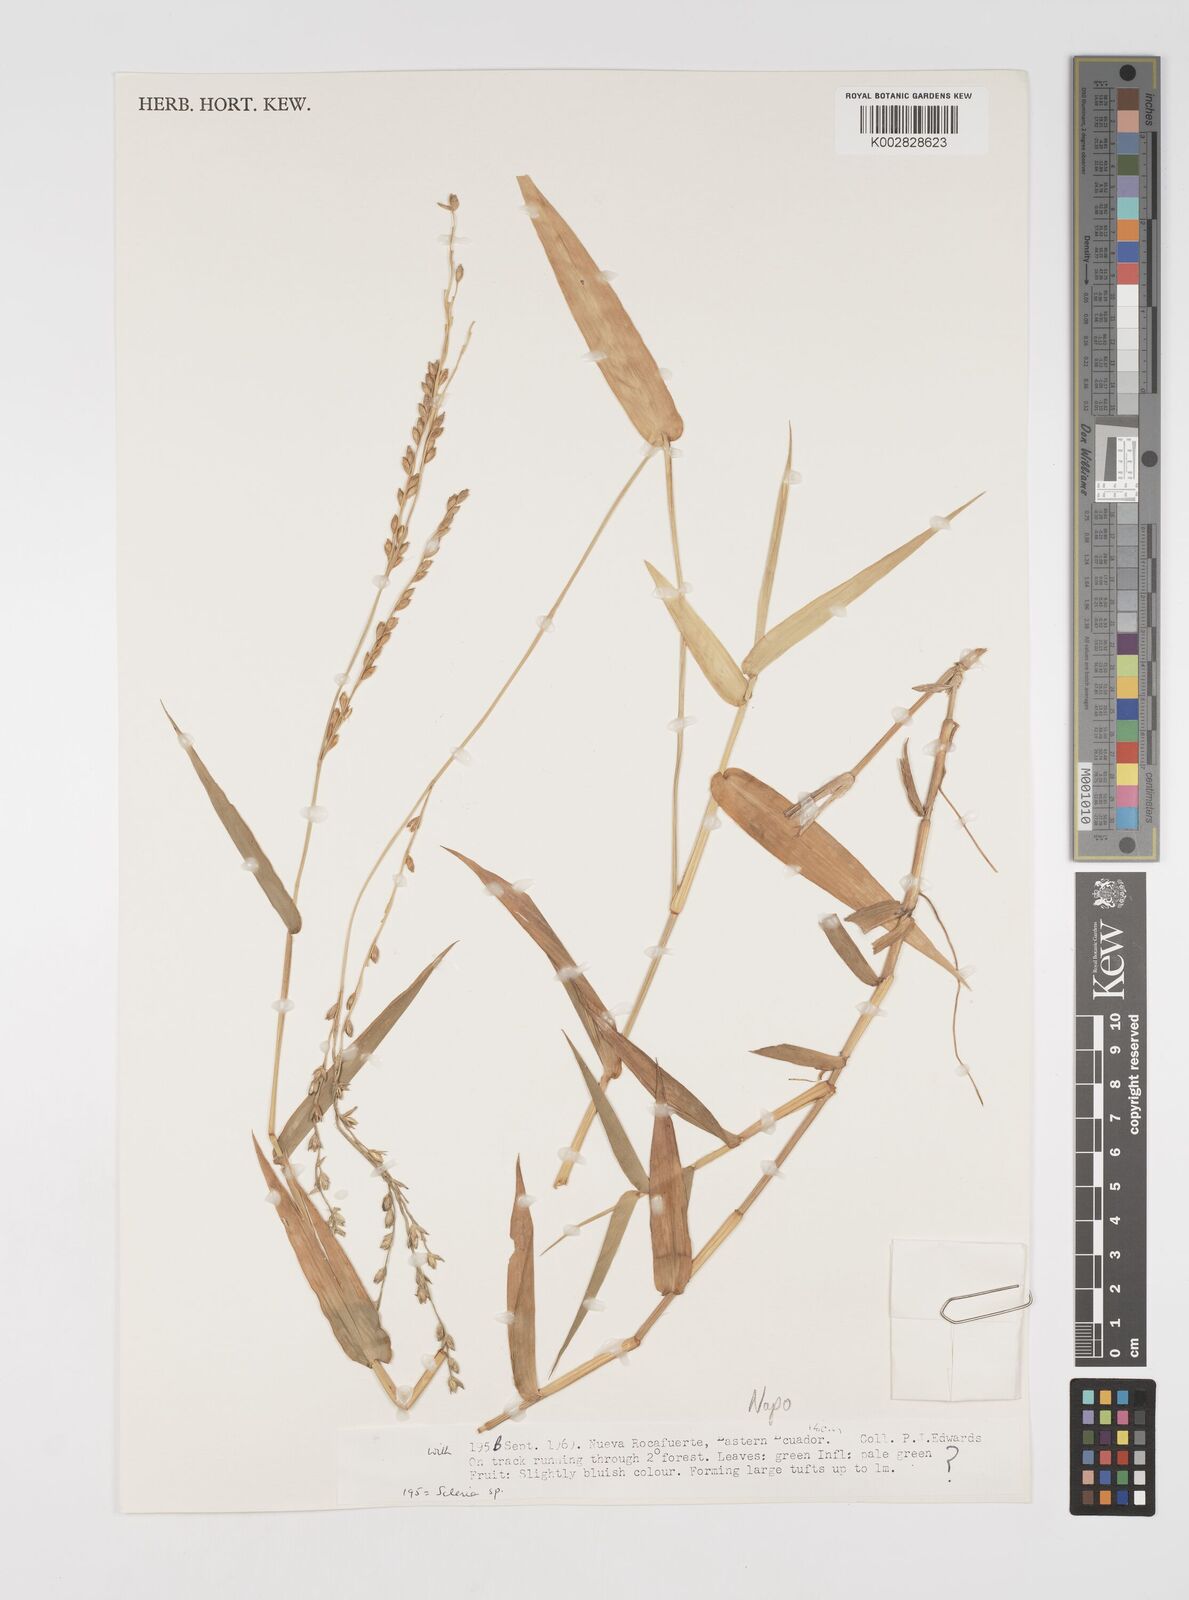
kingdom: Plantae
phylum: Tracheophyta
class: Liliopsida
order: Poales
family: Poaceae
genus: Acroceras
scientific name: Acroceras zizanioides
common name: Oat grass
